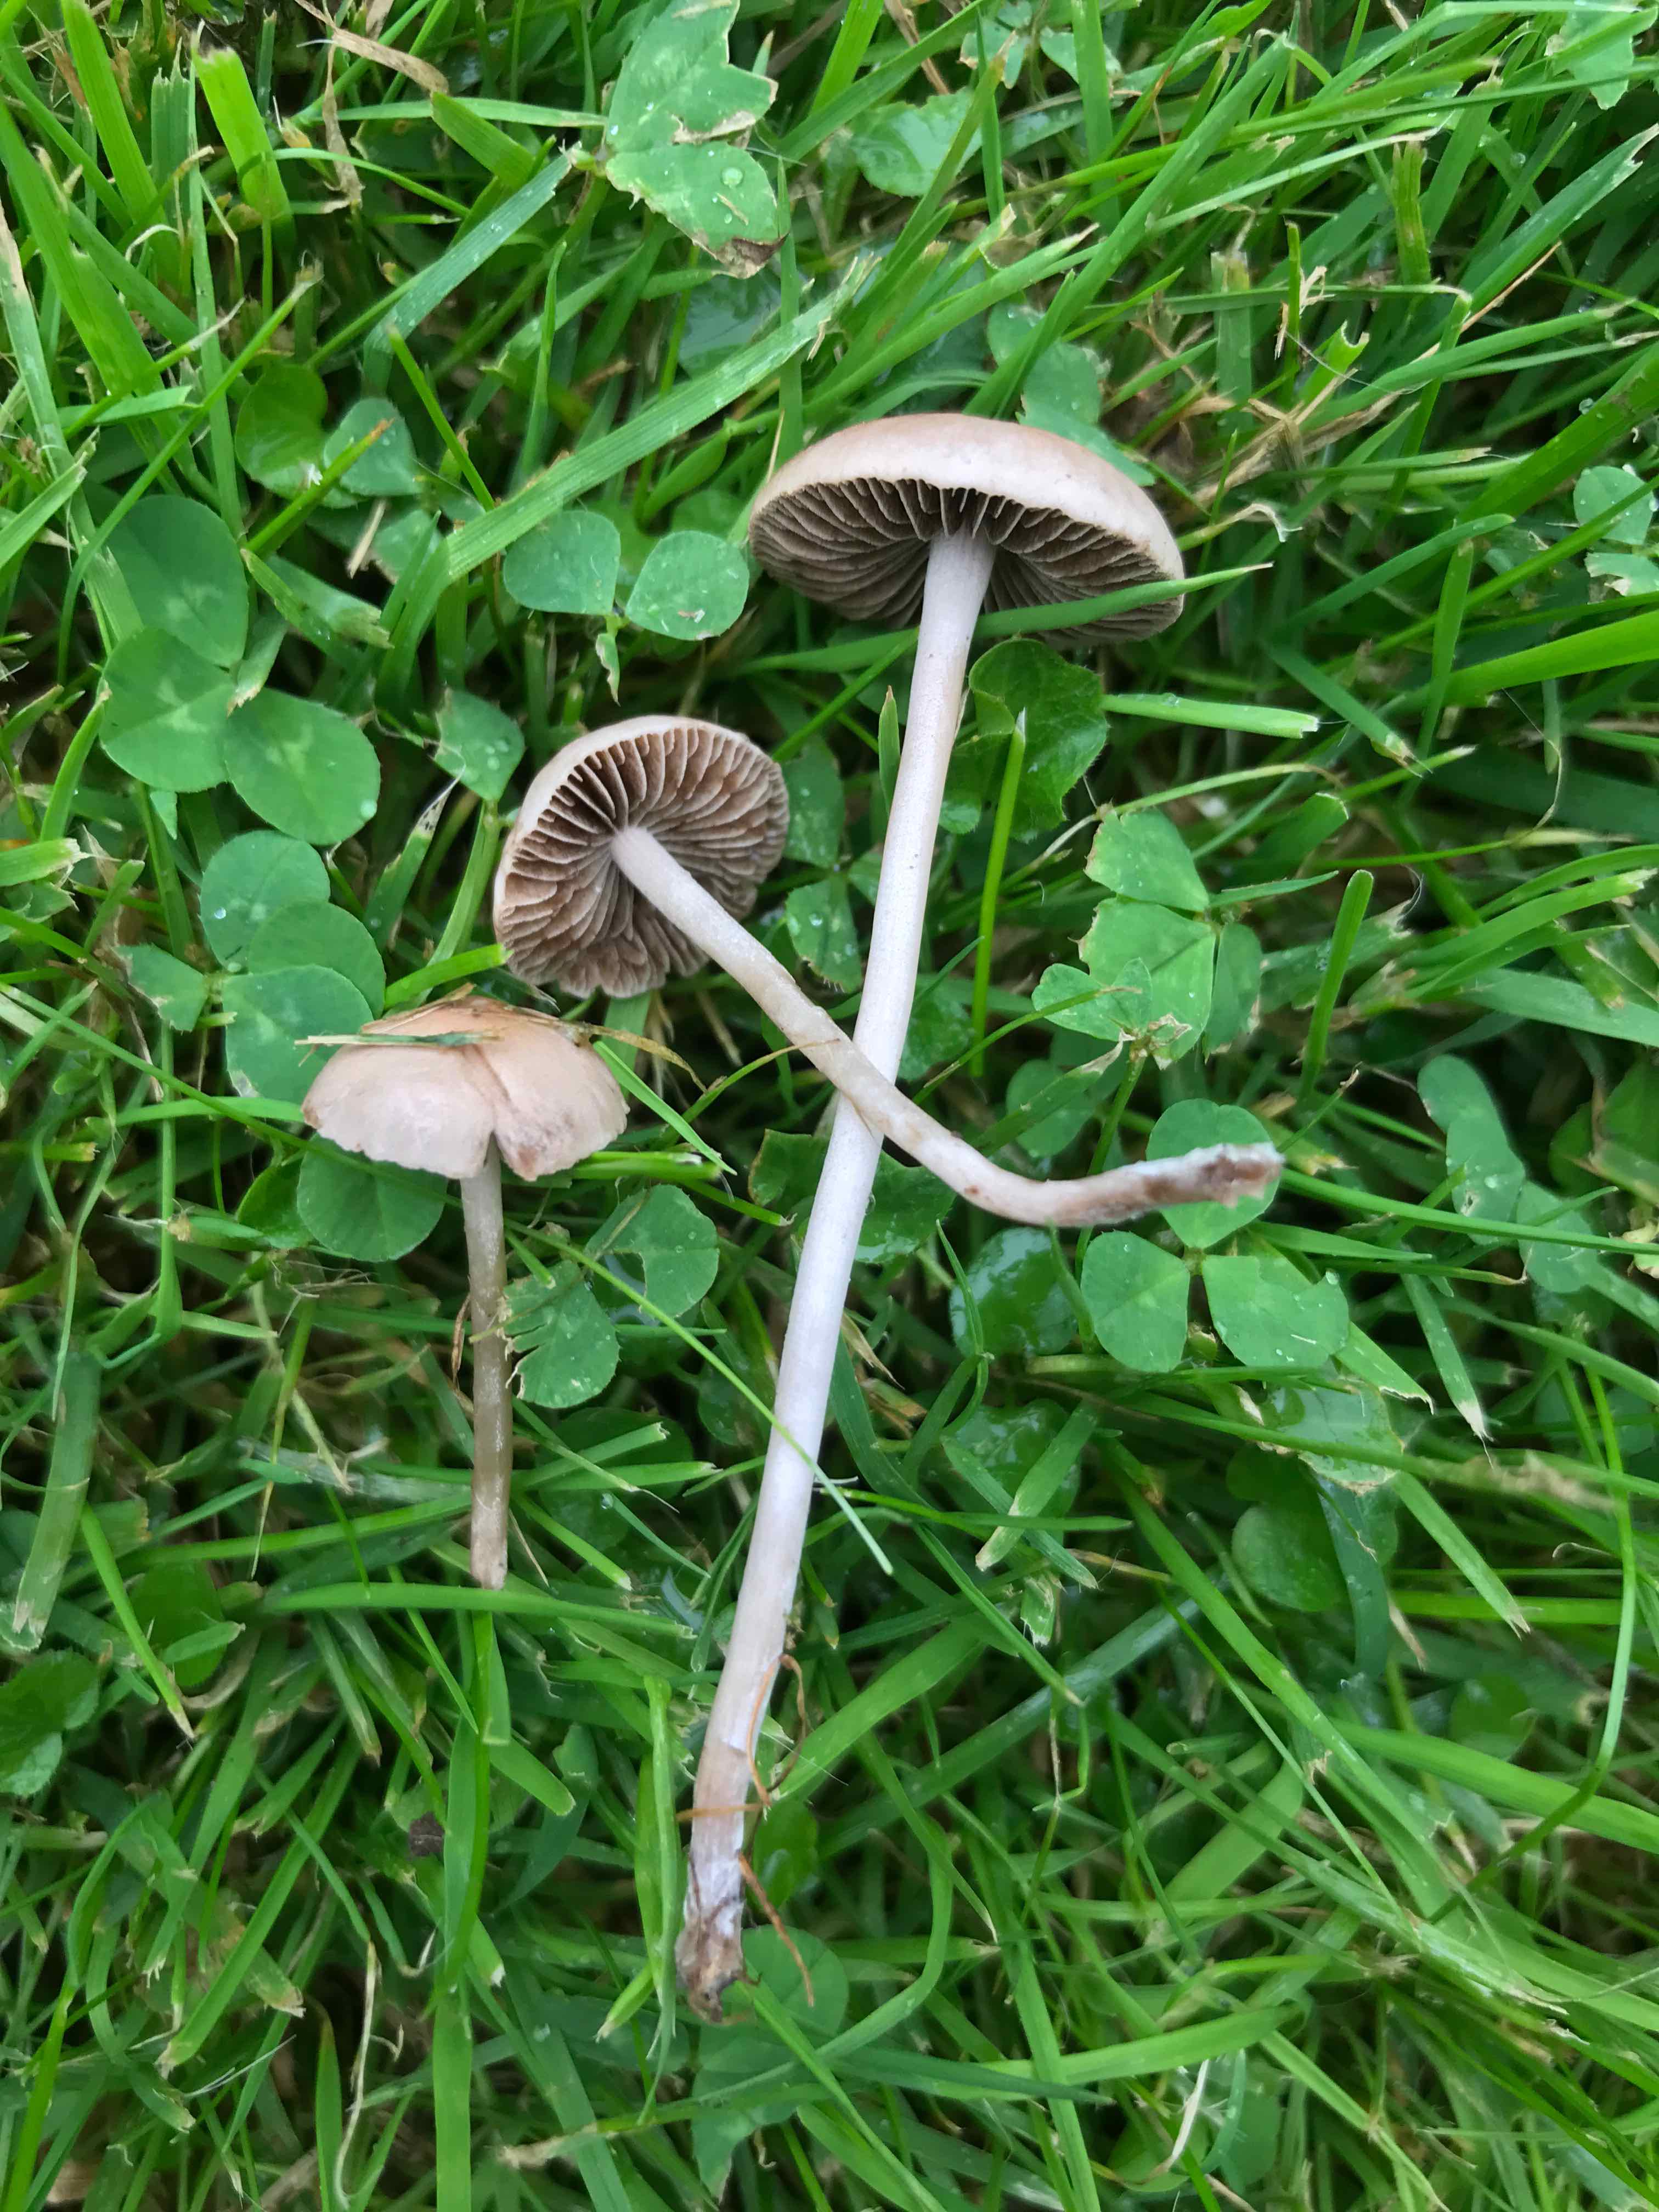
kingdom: Fungi
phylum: Basidiomycota
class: Agaricomycetes
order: Agaricales
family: Bolbitiaceae
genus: Panaeolina
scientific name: Panaeolina foenisecii
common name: høslætsvamp
